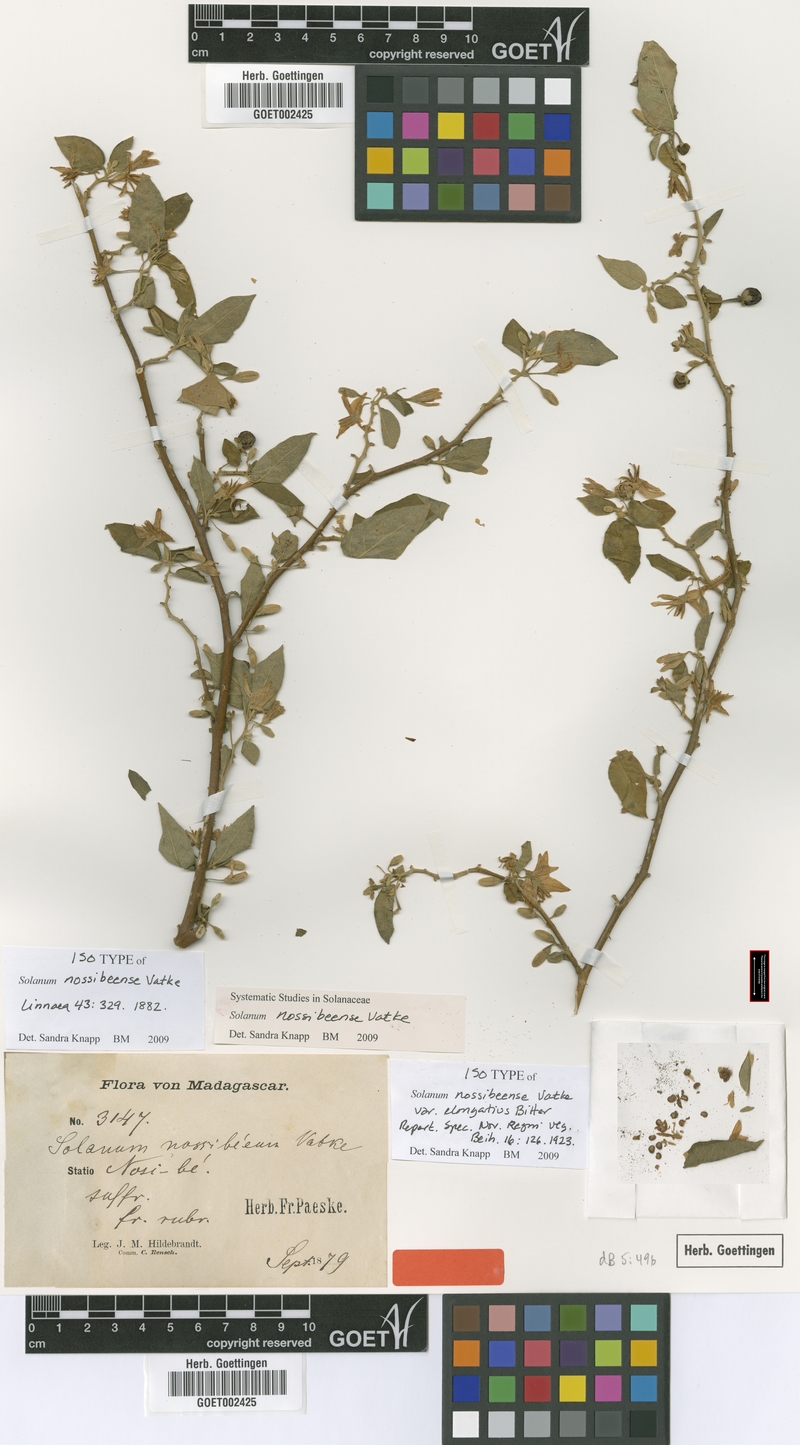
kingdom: Plantae
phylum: Tracheophyta
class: Magnoliopsida
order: Solanales
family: Solanaceae
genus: Solanum
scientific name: Solanum erythracanthum
